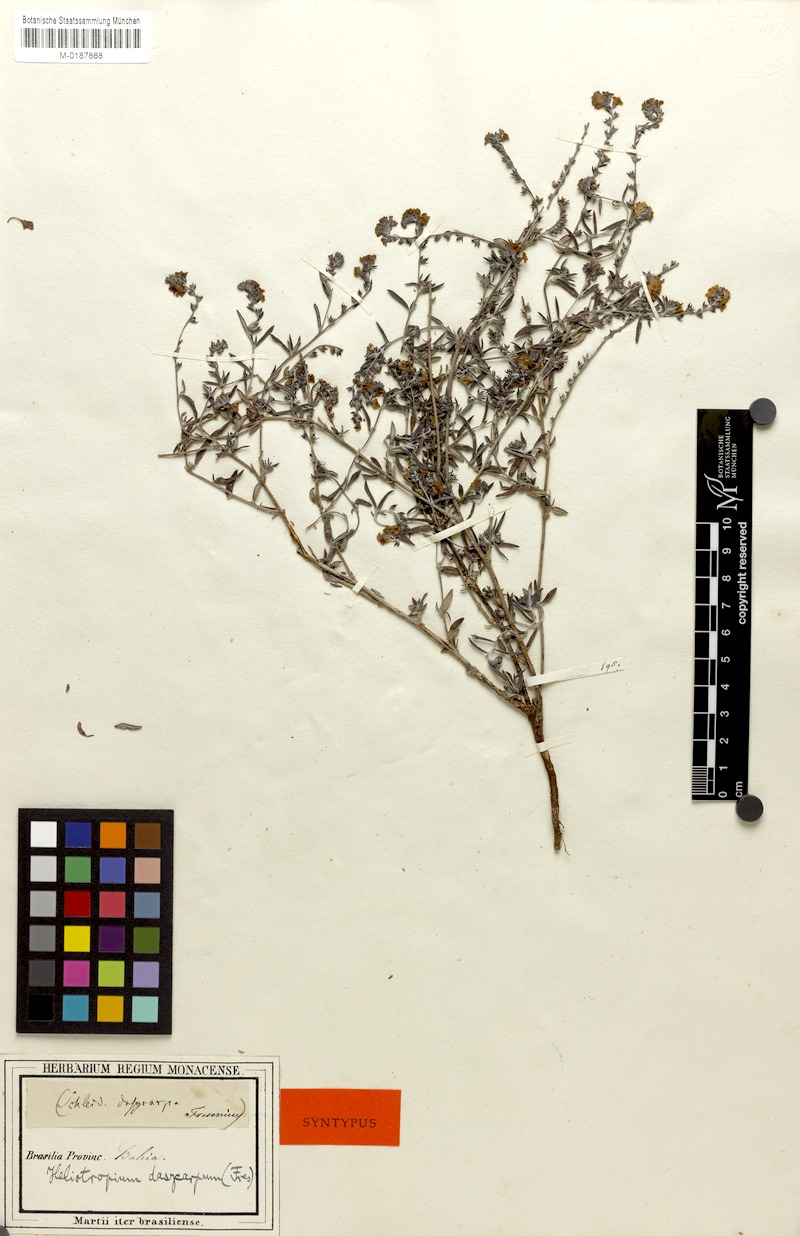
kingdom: Plantae
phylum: Tracheophyta
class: Magnoliopsida
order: Boraginales
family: Heliotropiaceae
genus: Euploca
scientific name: Euploca humilis
